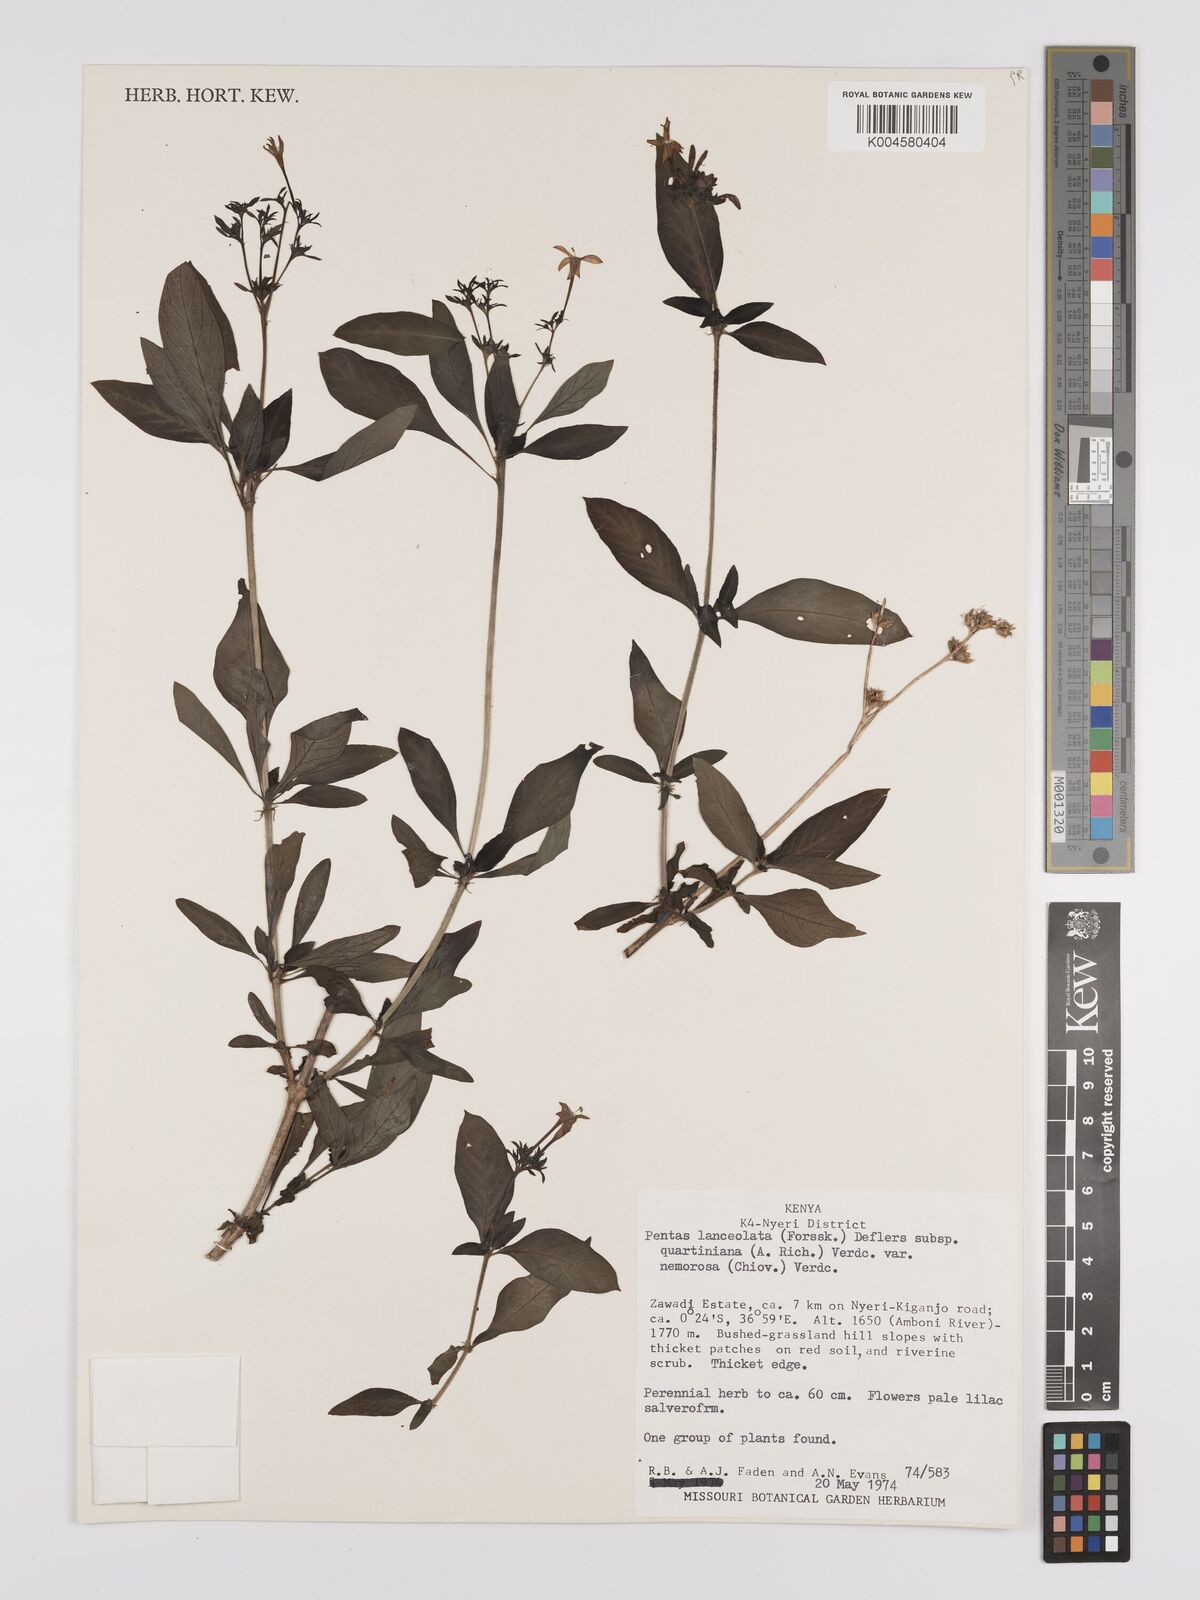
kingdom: Plantae
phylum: Tracheophyta
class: Magnoliopsida
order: Gentianales
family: Rubiaceae
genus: Pentas
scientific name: Pentas lanceolata
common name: Egyptian starcluster
